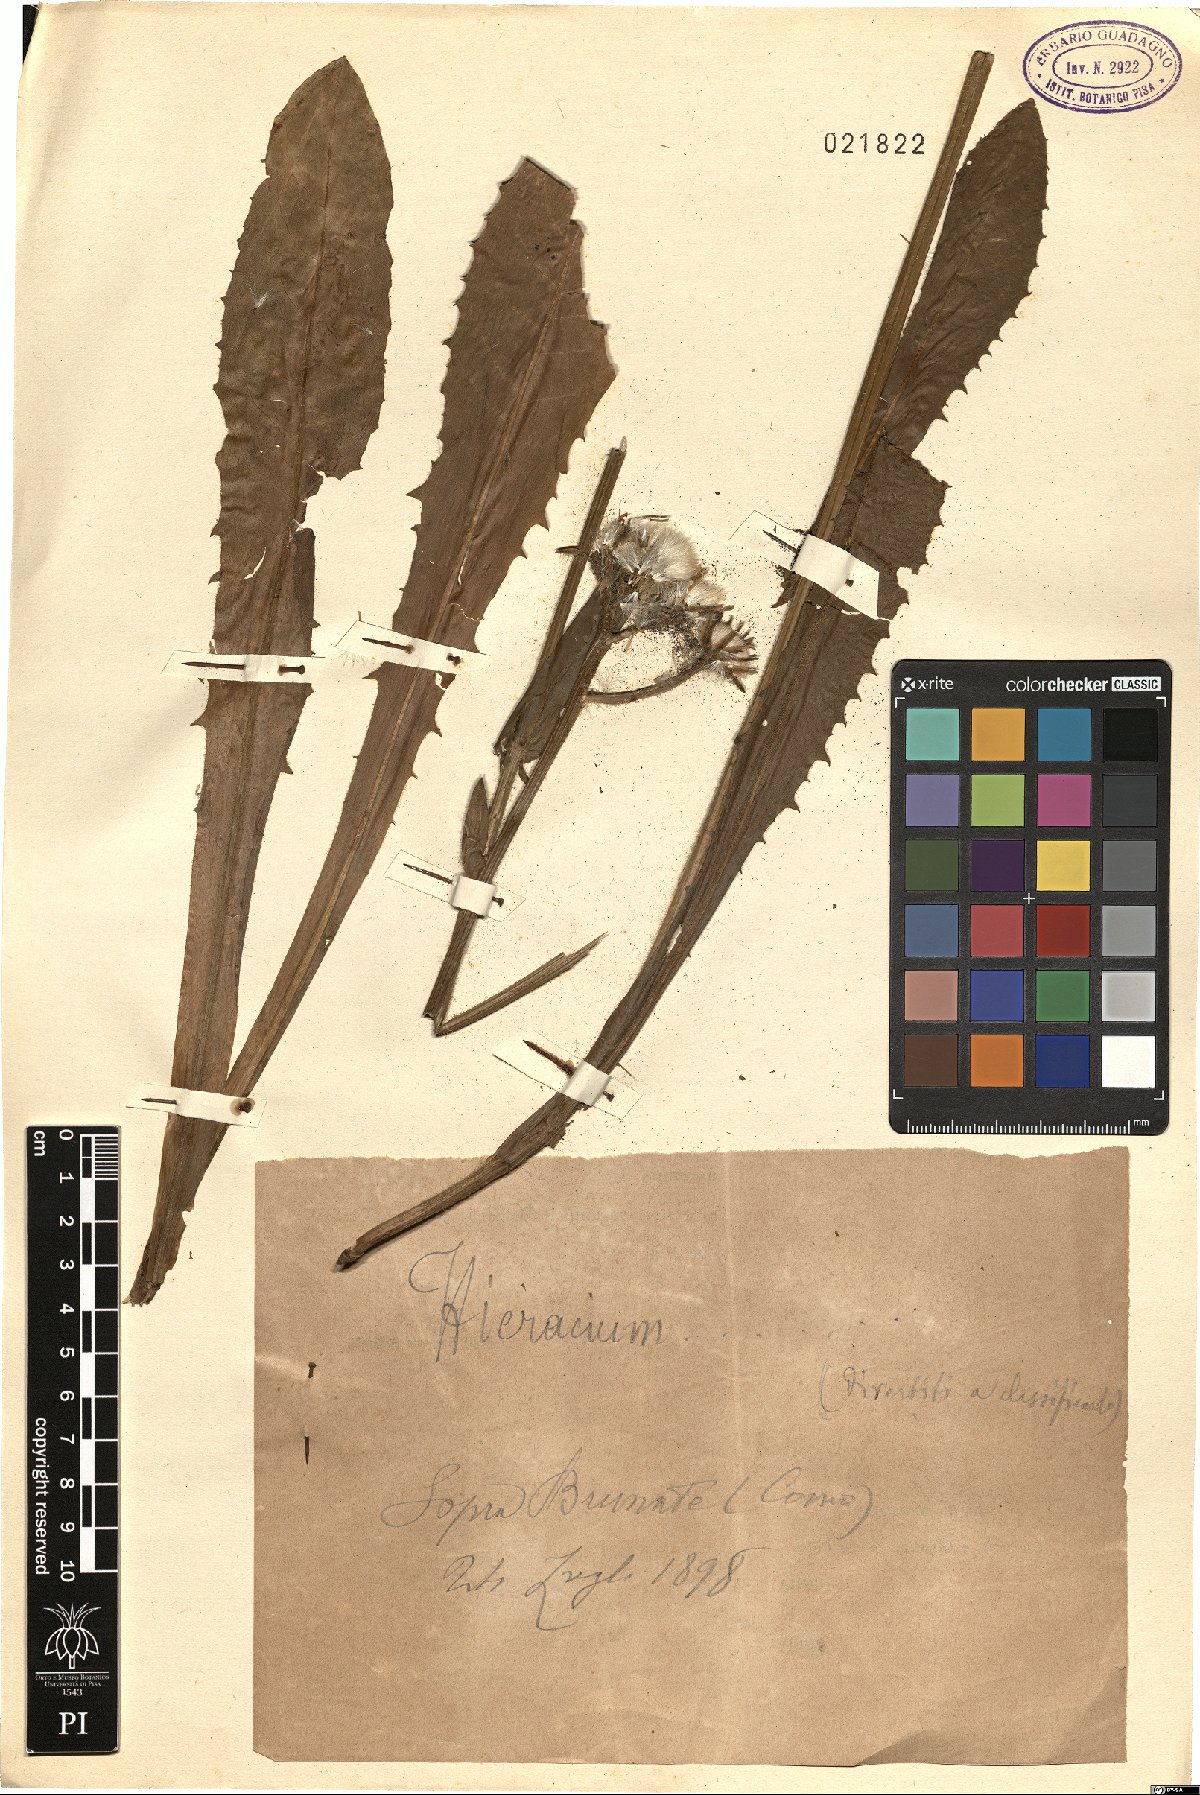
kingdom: Plantae
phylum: Tracheophyta
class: Magnoliopsida
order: Asterales
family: Asteraceae
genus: Hieracium
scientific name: Hieracium
